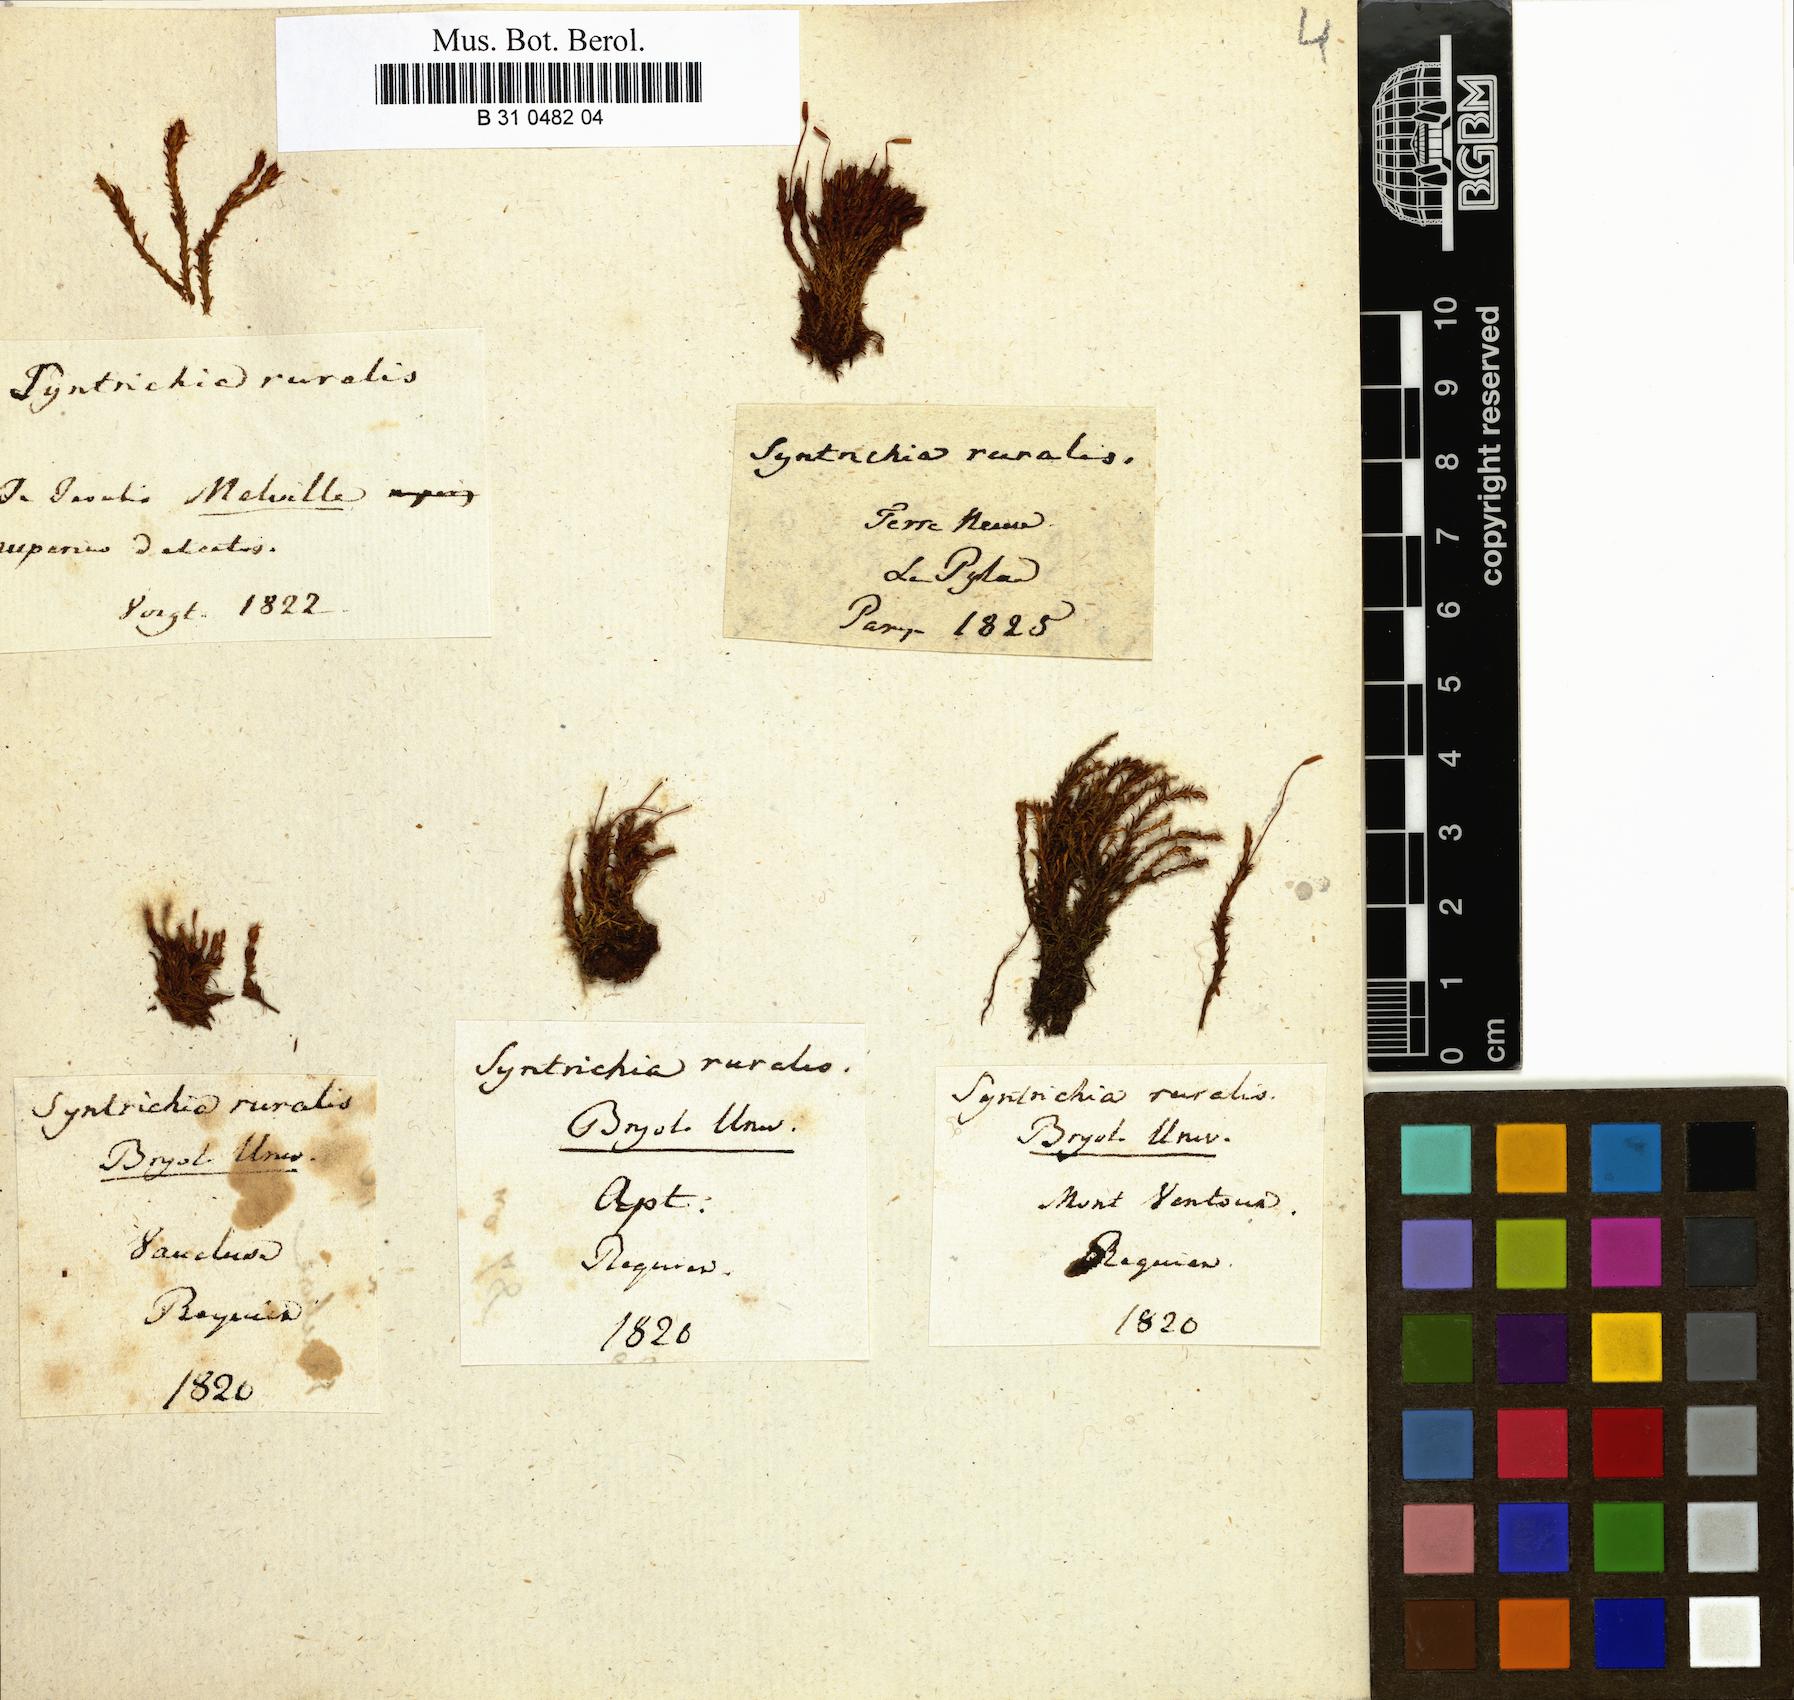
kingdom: Plantae
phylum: Bryophyta
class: Bryopsida
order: Pottiales
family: Pottiaceae
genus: Syntrichia
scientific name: Syntrichia ruralis
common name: Sidewalk screw moss
